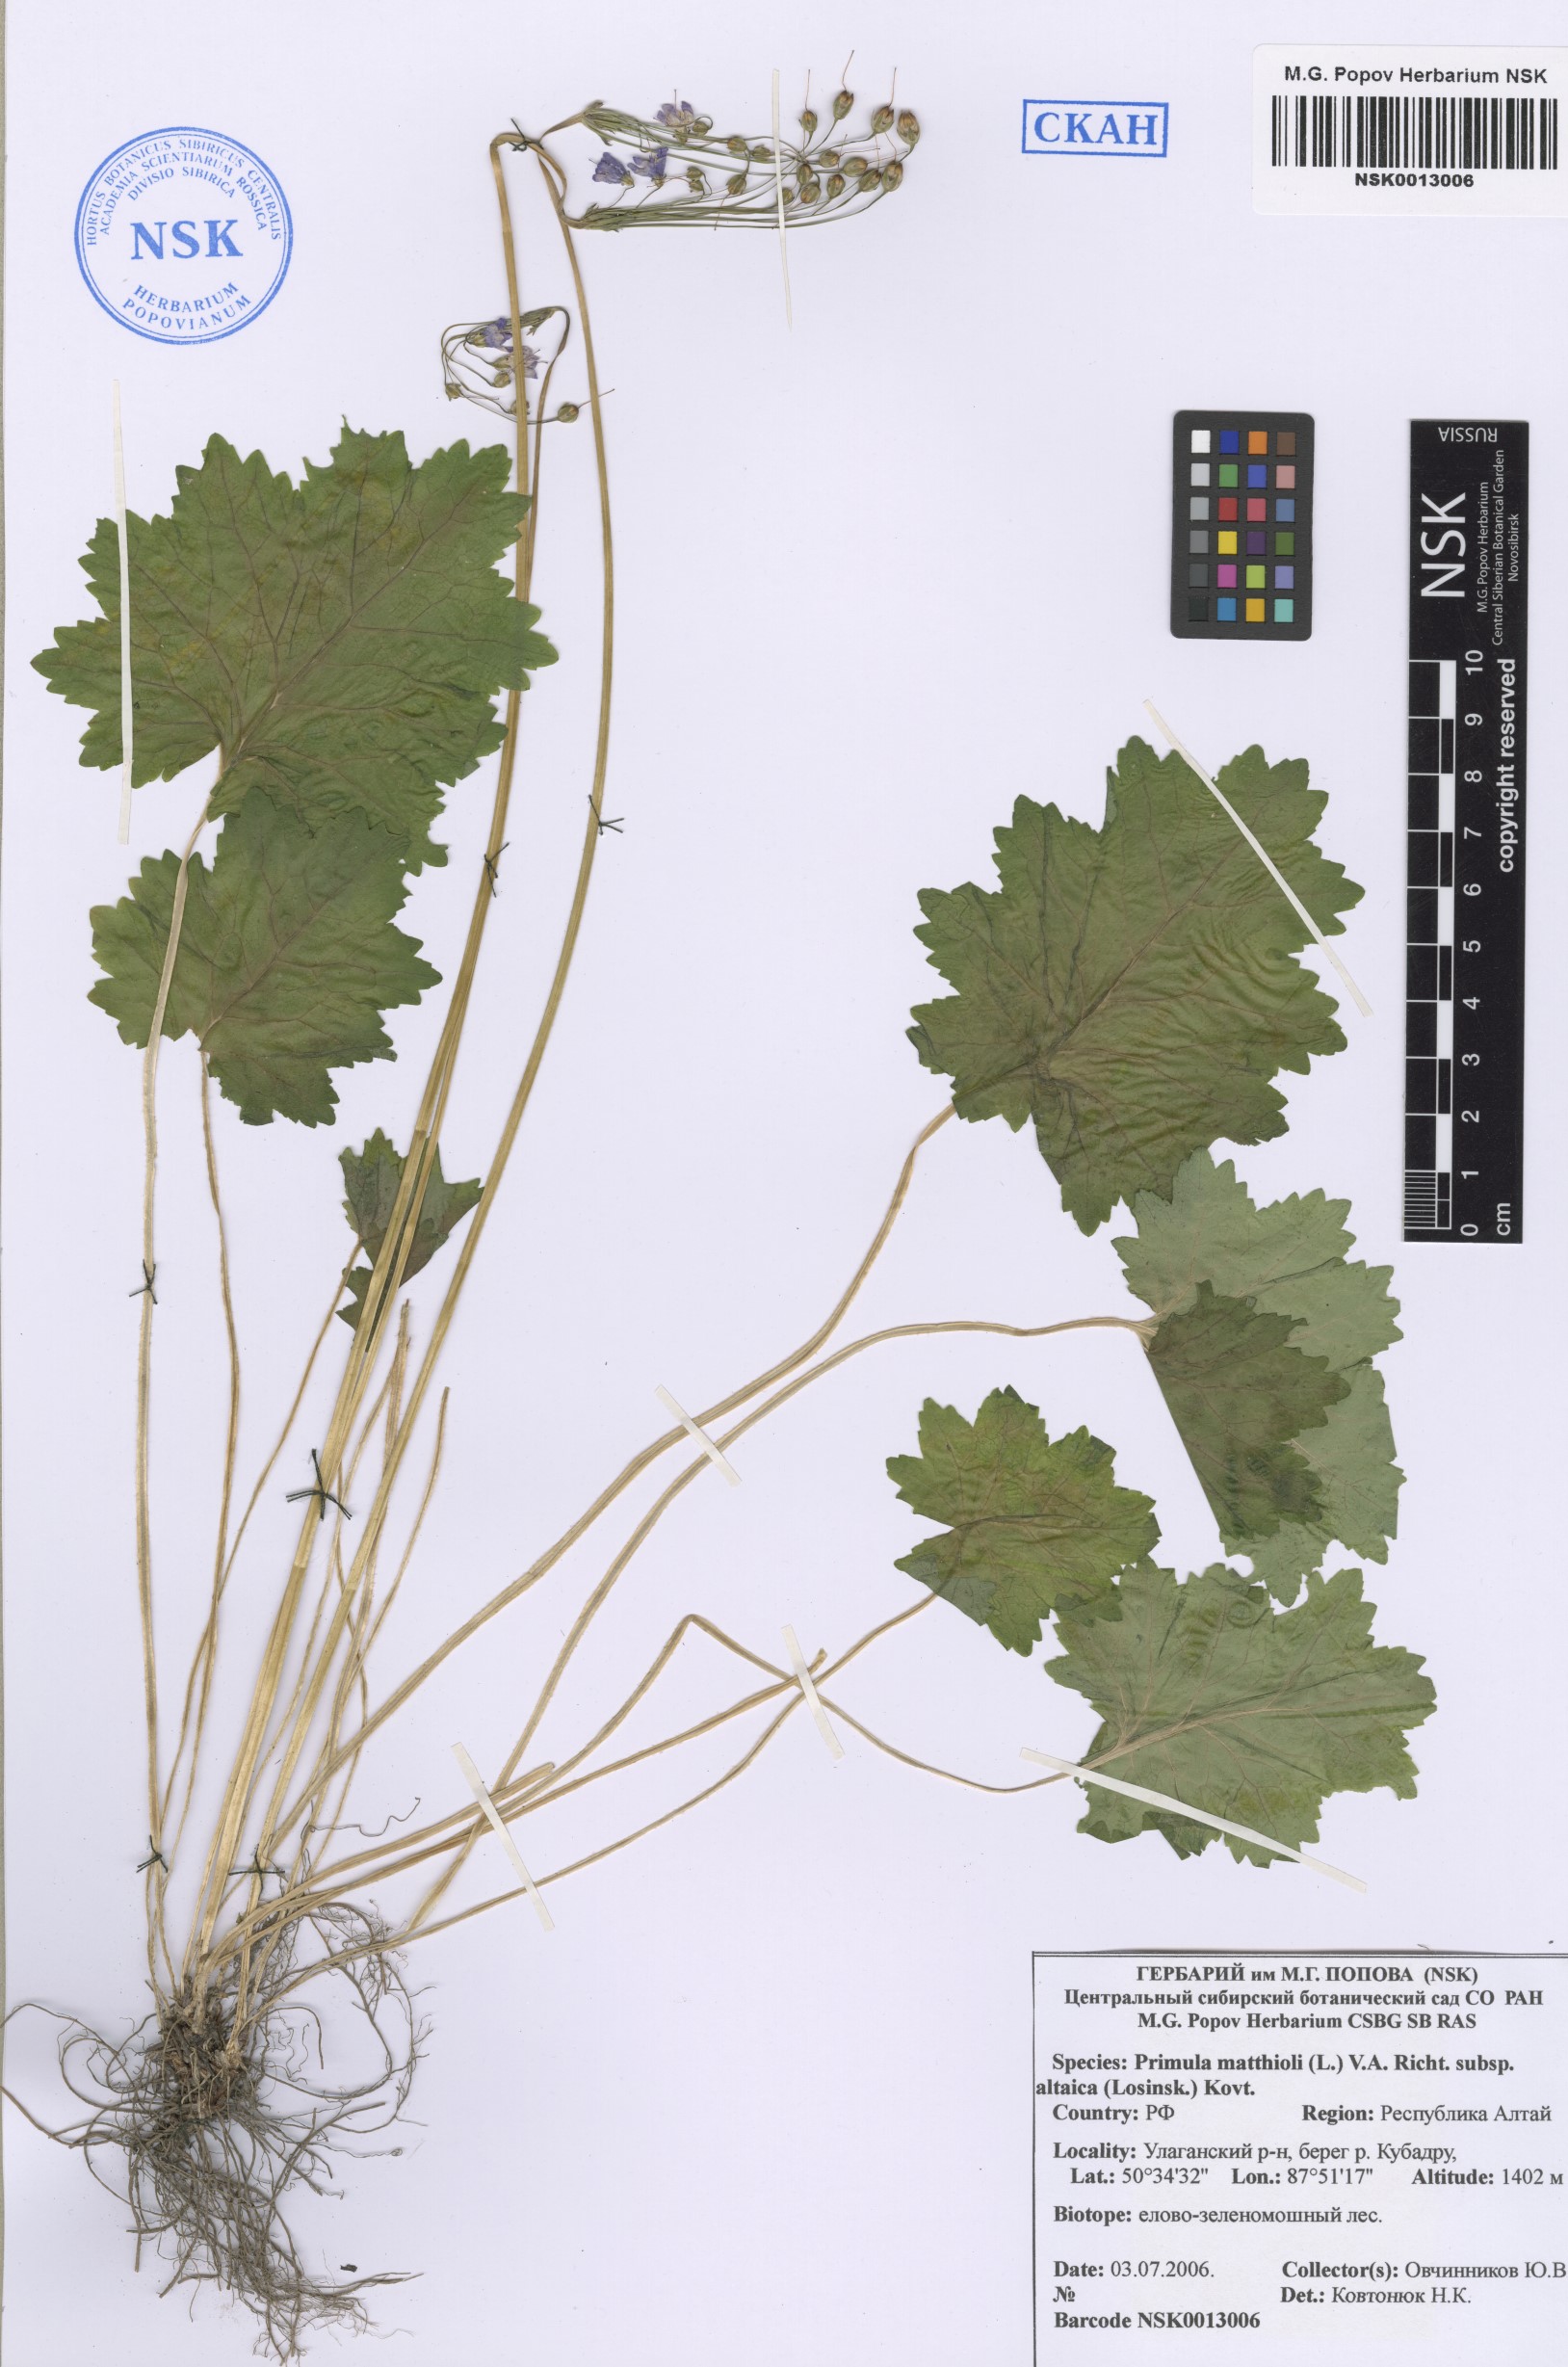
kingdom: Plantae
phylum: Tracheophyta
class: Magnoliopsida
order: Ericales
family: Primulaceae
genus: Primula
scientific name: Primula matthioli
